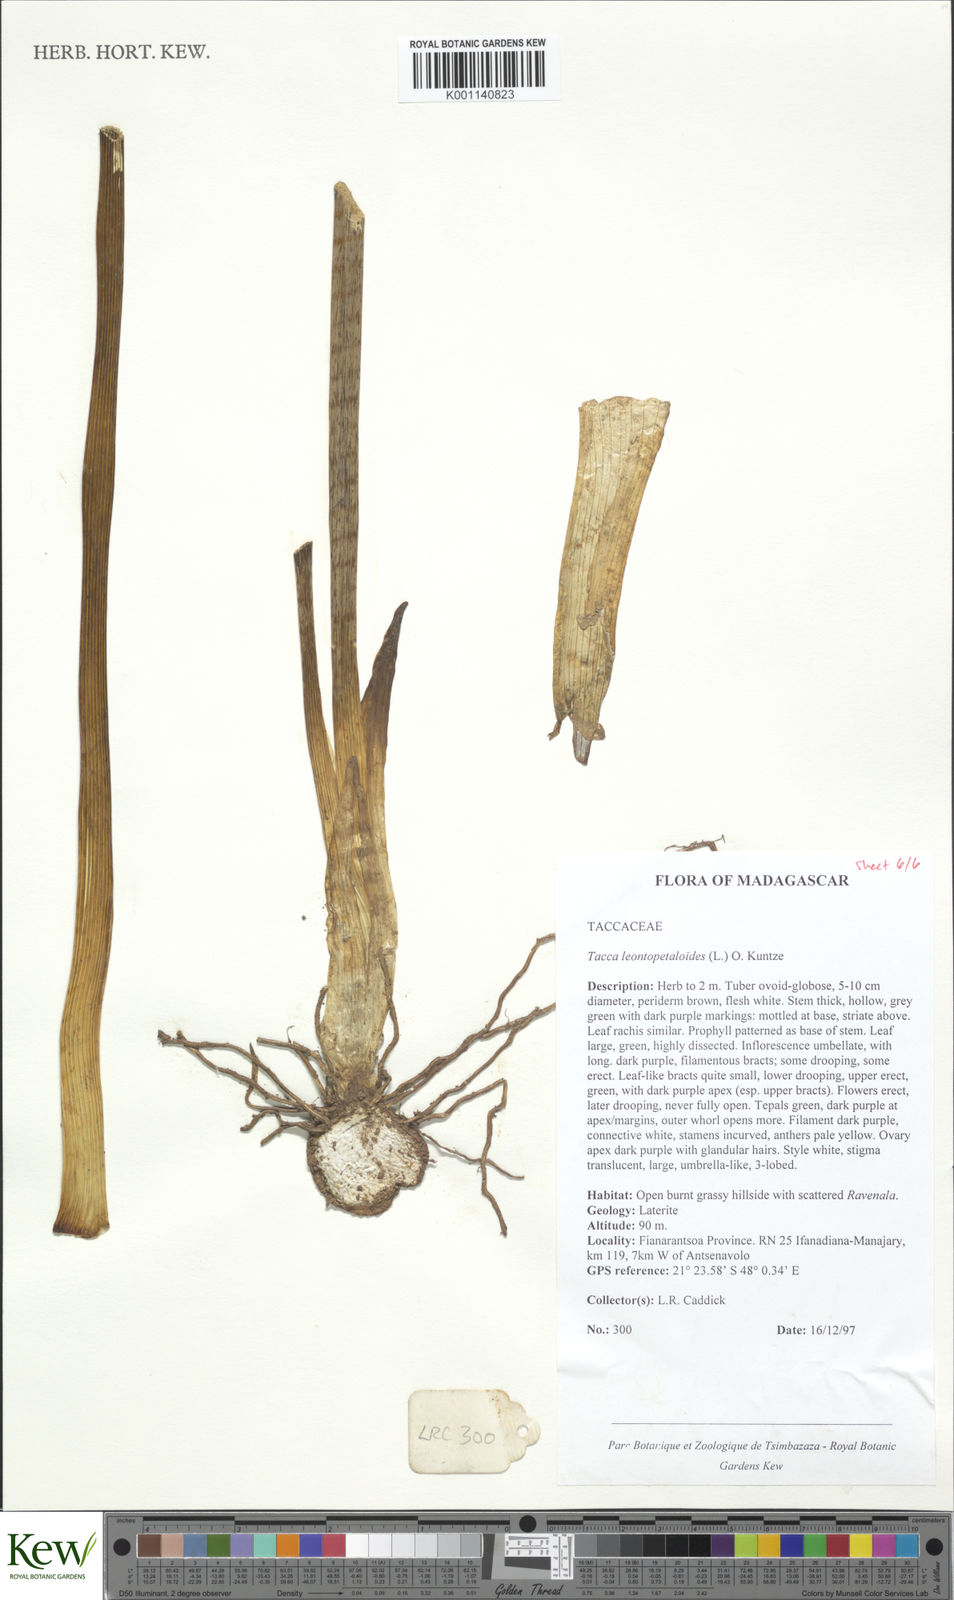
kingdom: Plantae
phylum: Tracheophyta
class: Liliopsida
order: Dioscoreales
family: Dioscoreaceae
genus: Tacca
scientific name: Tacca leontopetaloides
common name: Arrowroot
